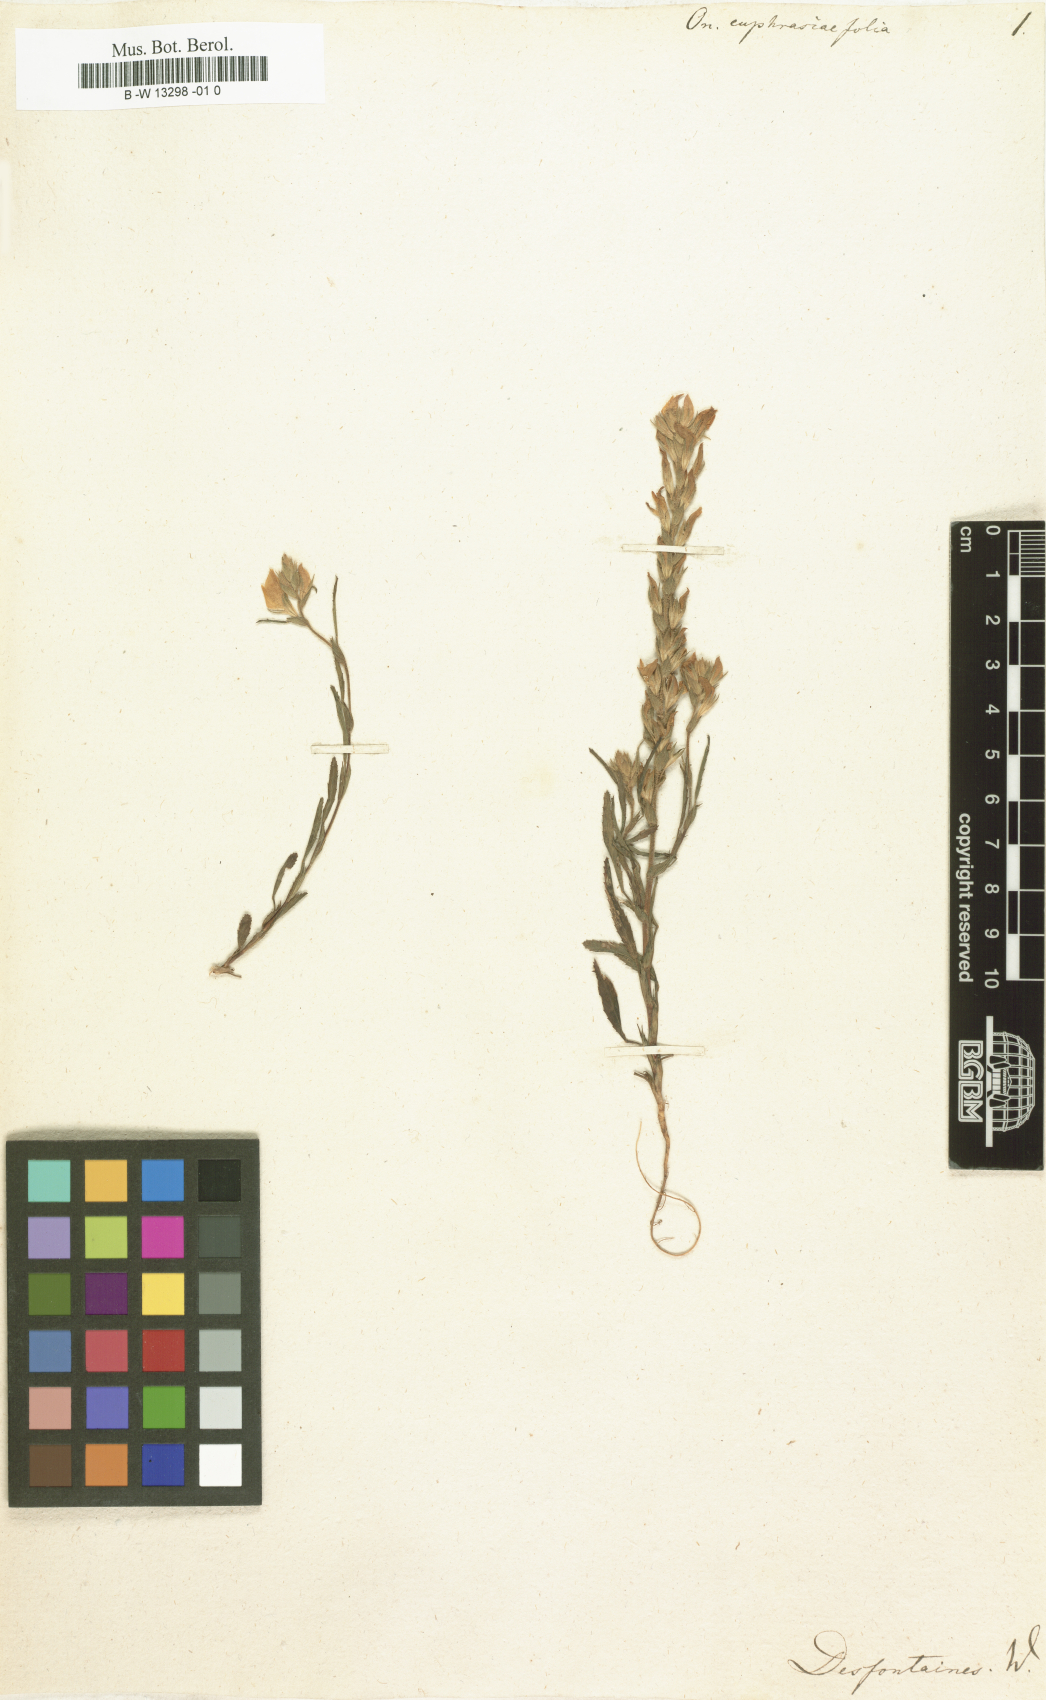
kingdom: Plantae
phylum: Tracheophyta
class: Magnoliopsida
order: Fabales
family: Fabaceae
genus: Ononis
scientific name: Ononis euphrasiifolia
